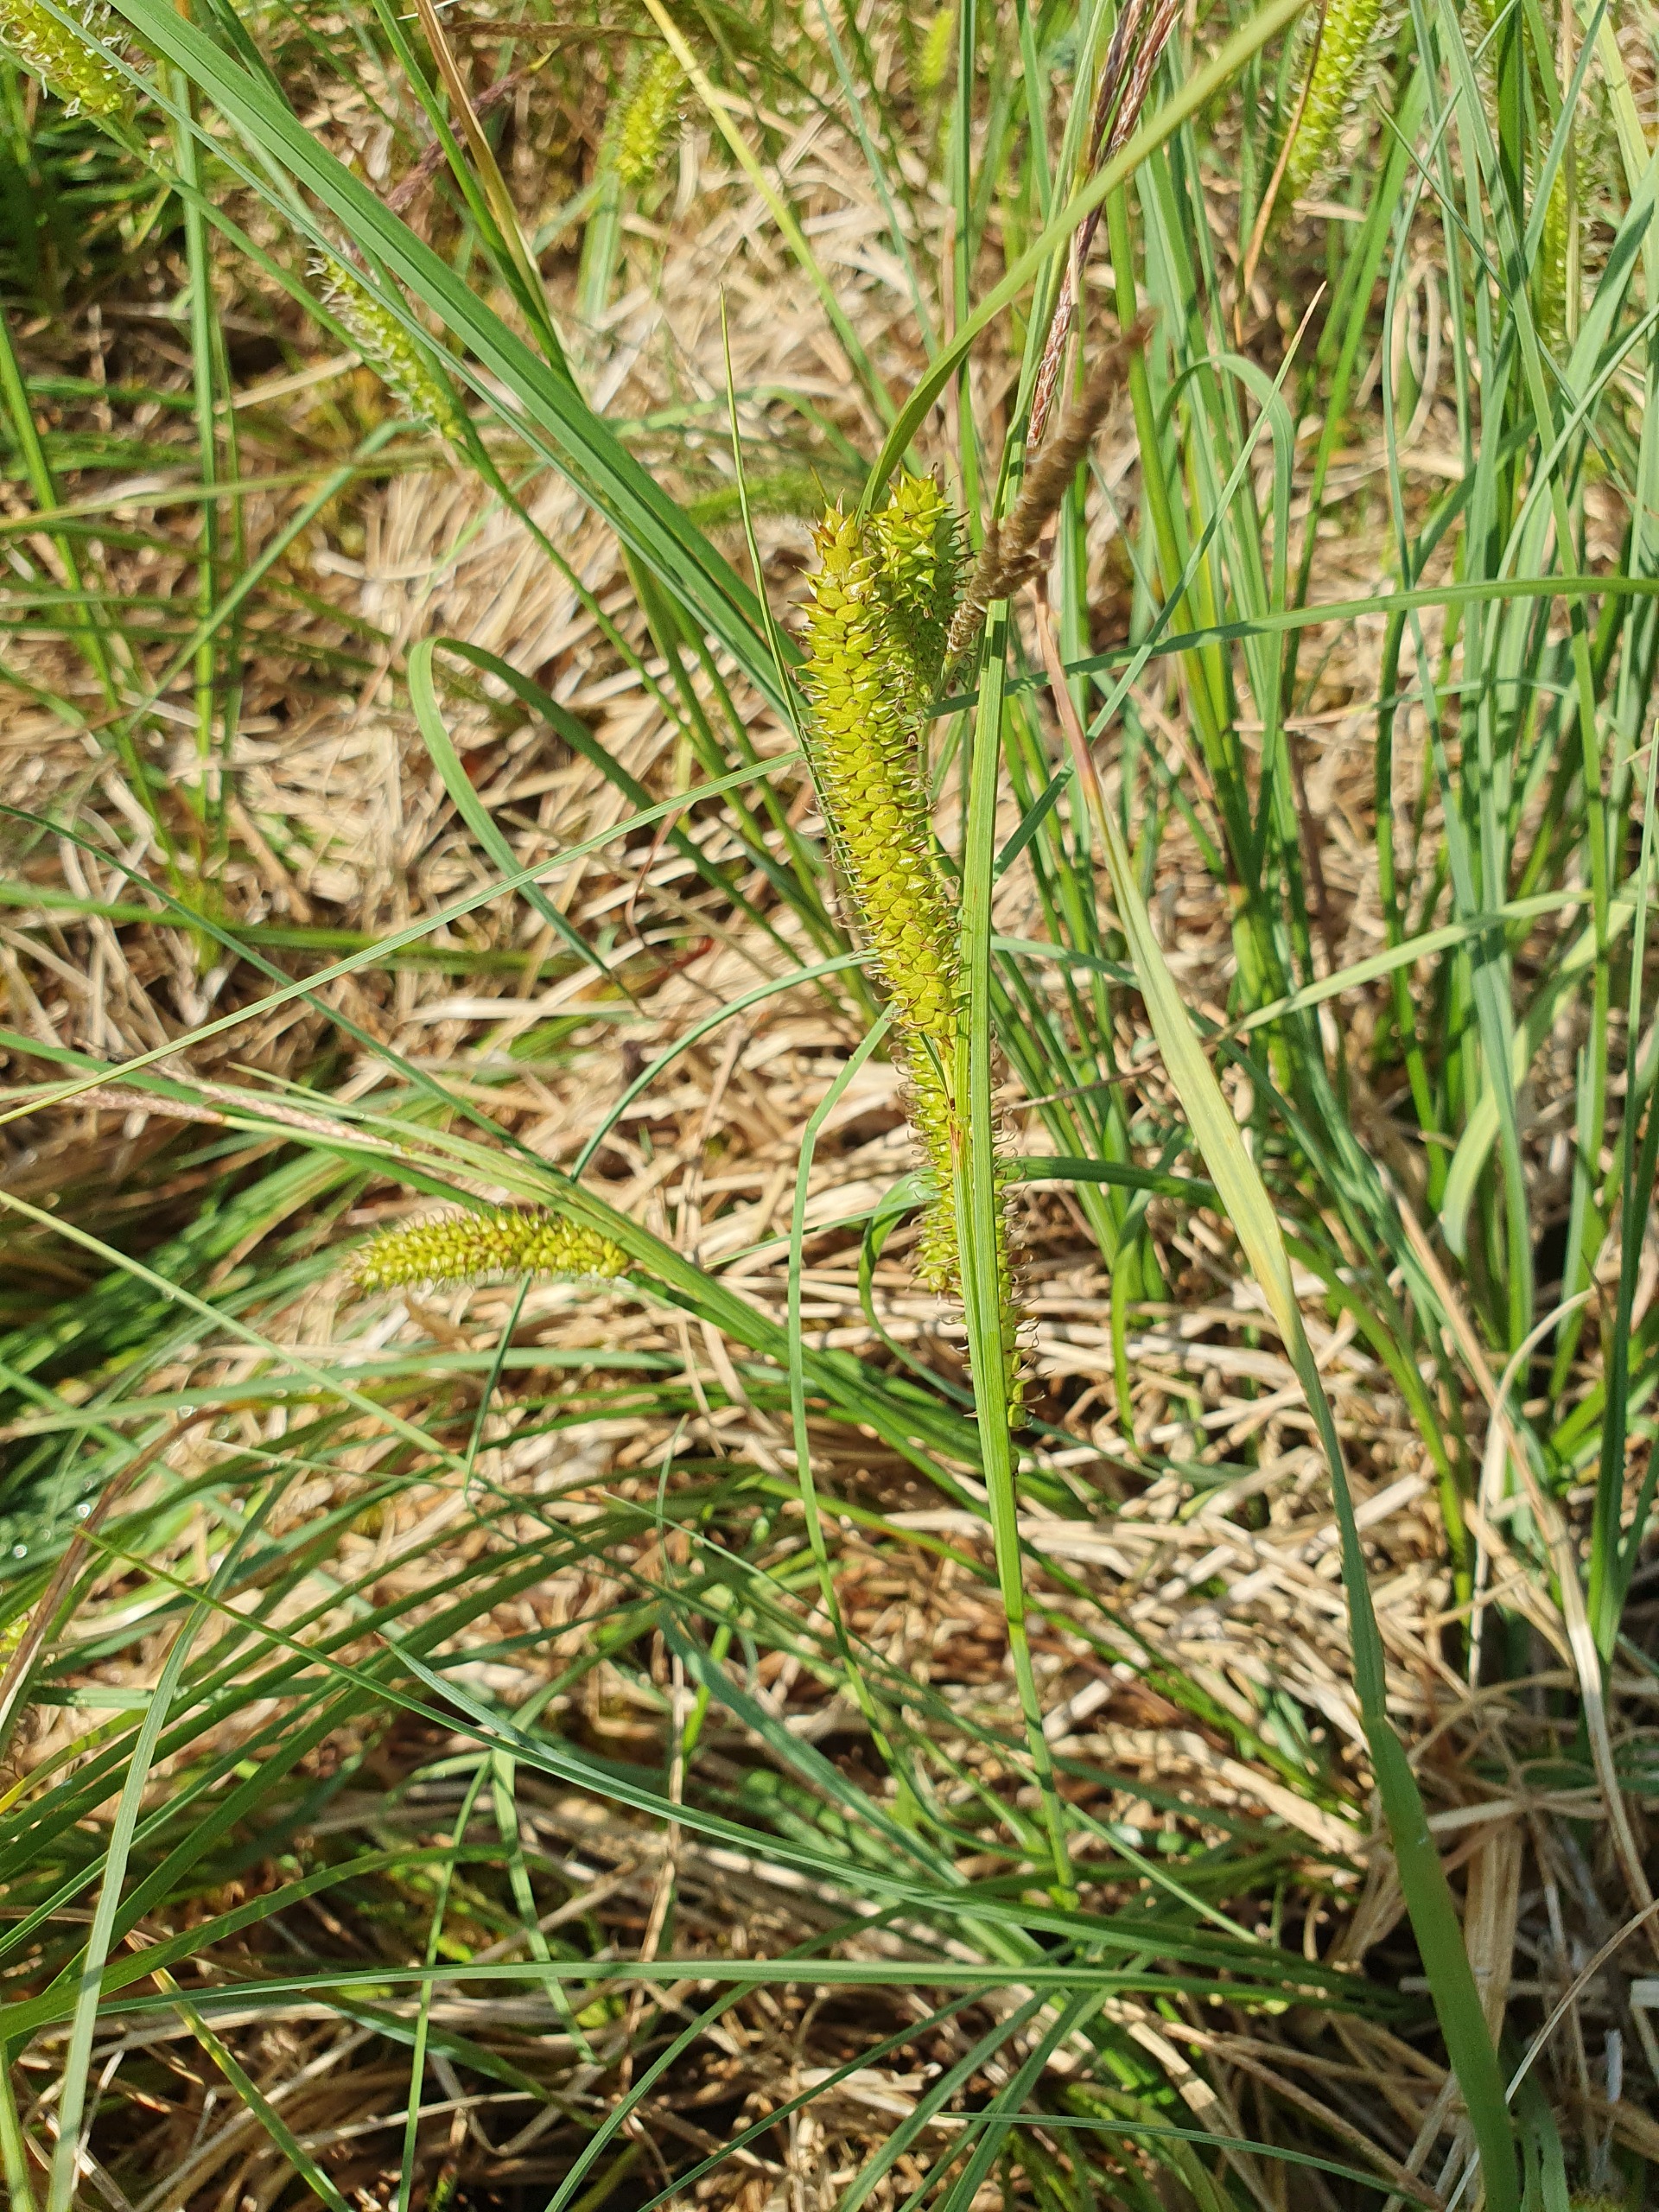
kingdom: Plantae
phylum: Tracheophyta
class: Liliopsida
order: Poales
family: Cyperaceae
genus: Carex
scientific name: Carex rostrata
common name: Næb-star
